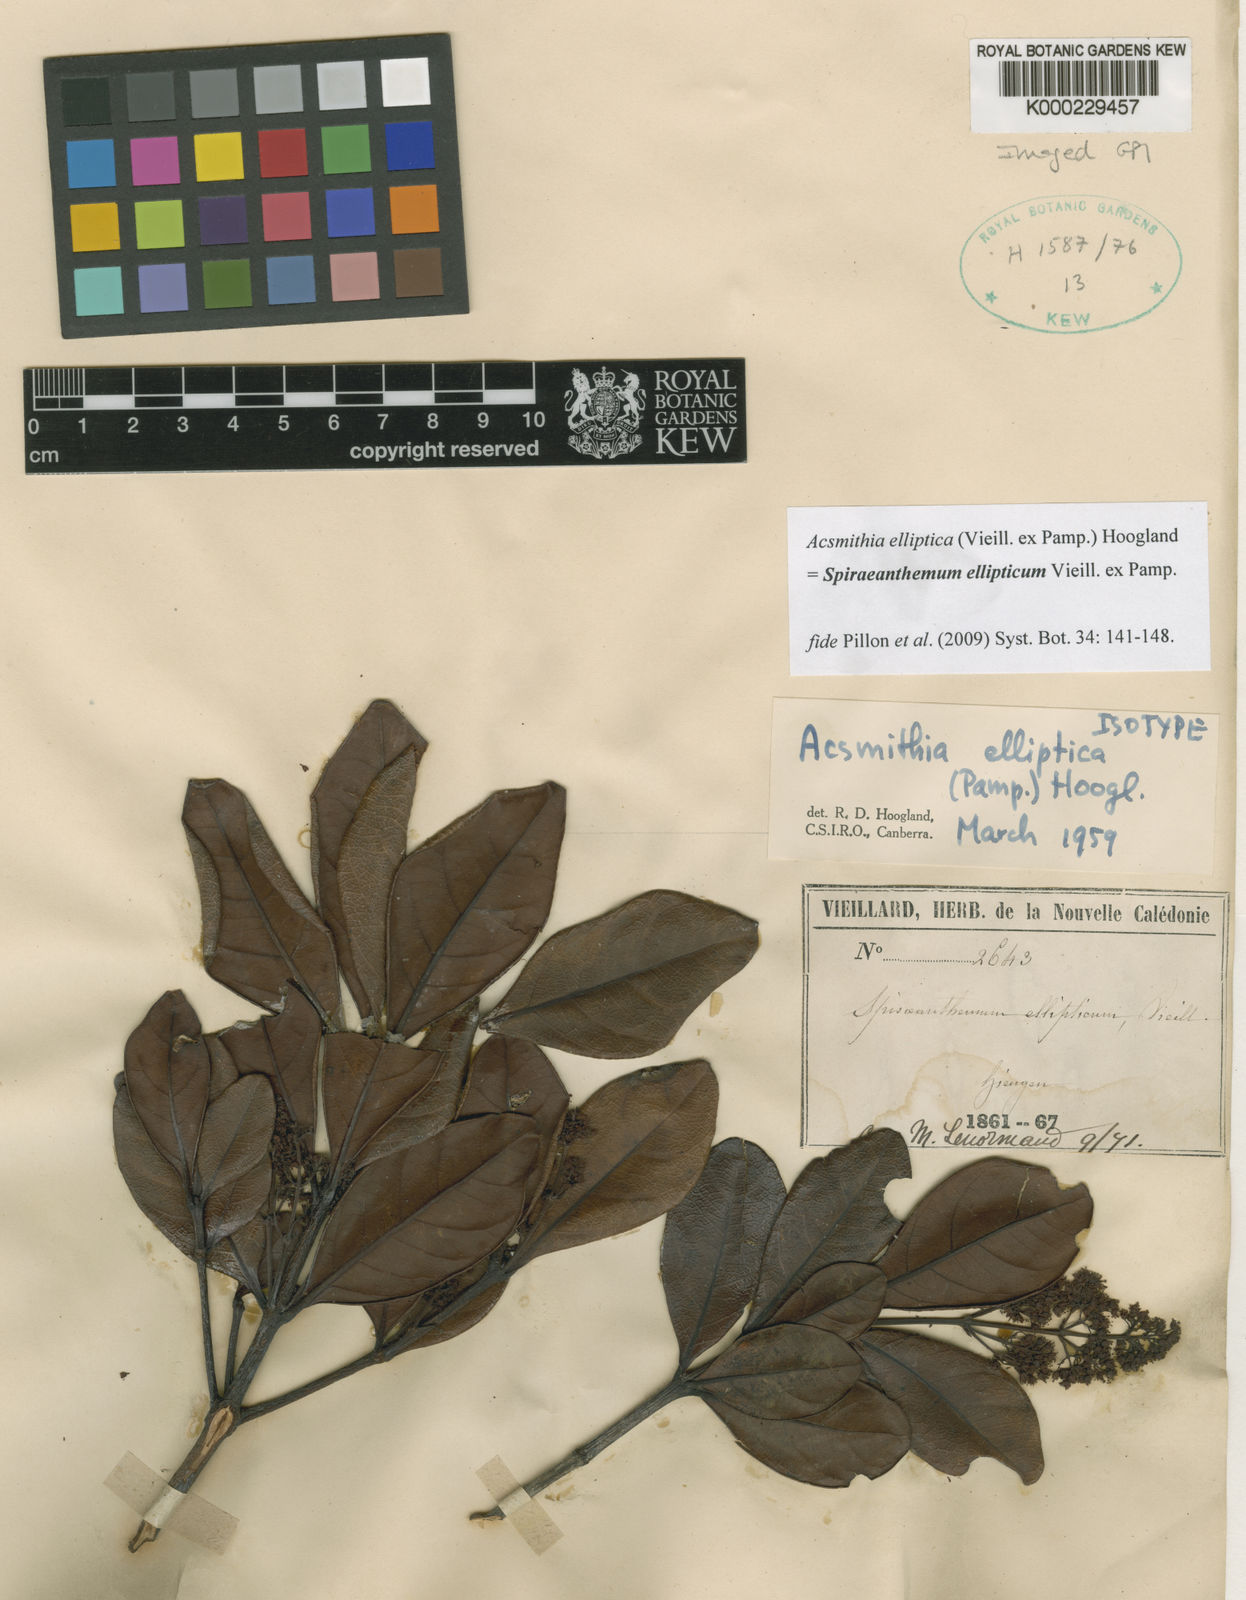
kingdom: Plantae
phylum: Tracheophyta
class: Magnoliopsida
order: Oxalidales
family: Cunoniaceae
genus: Spiraeanthemum
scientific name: Spiraeanthemum ellipticum
